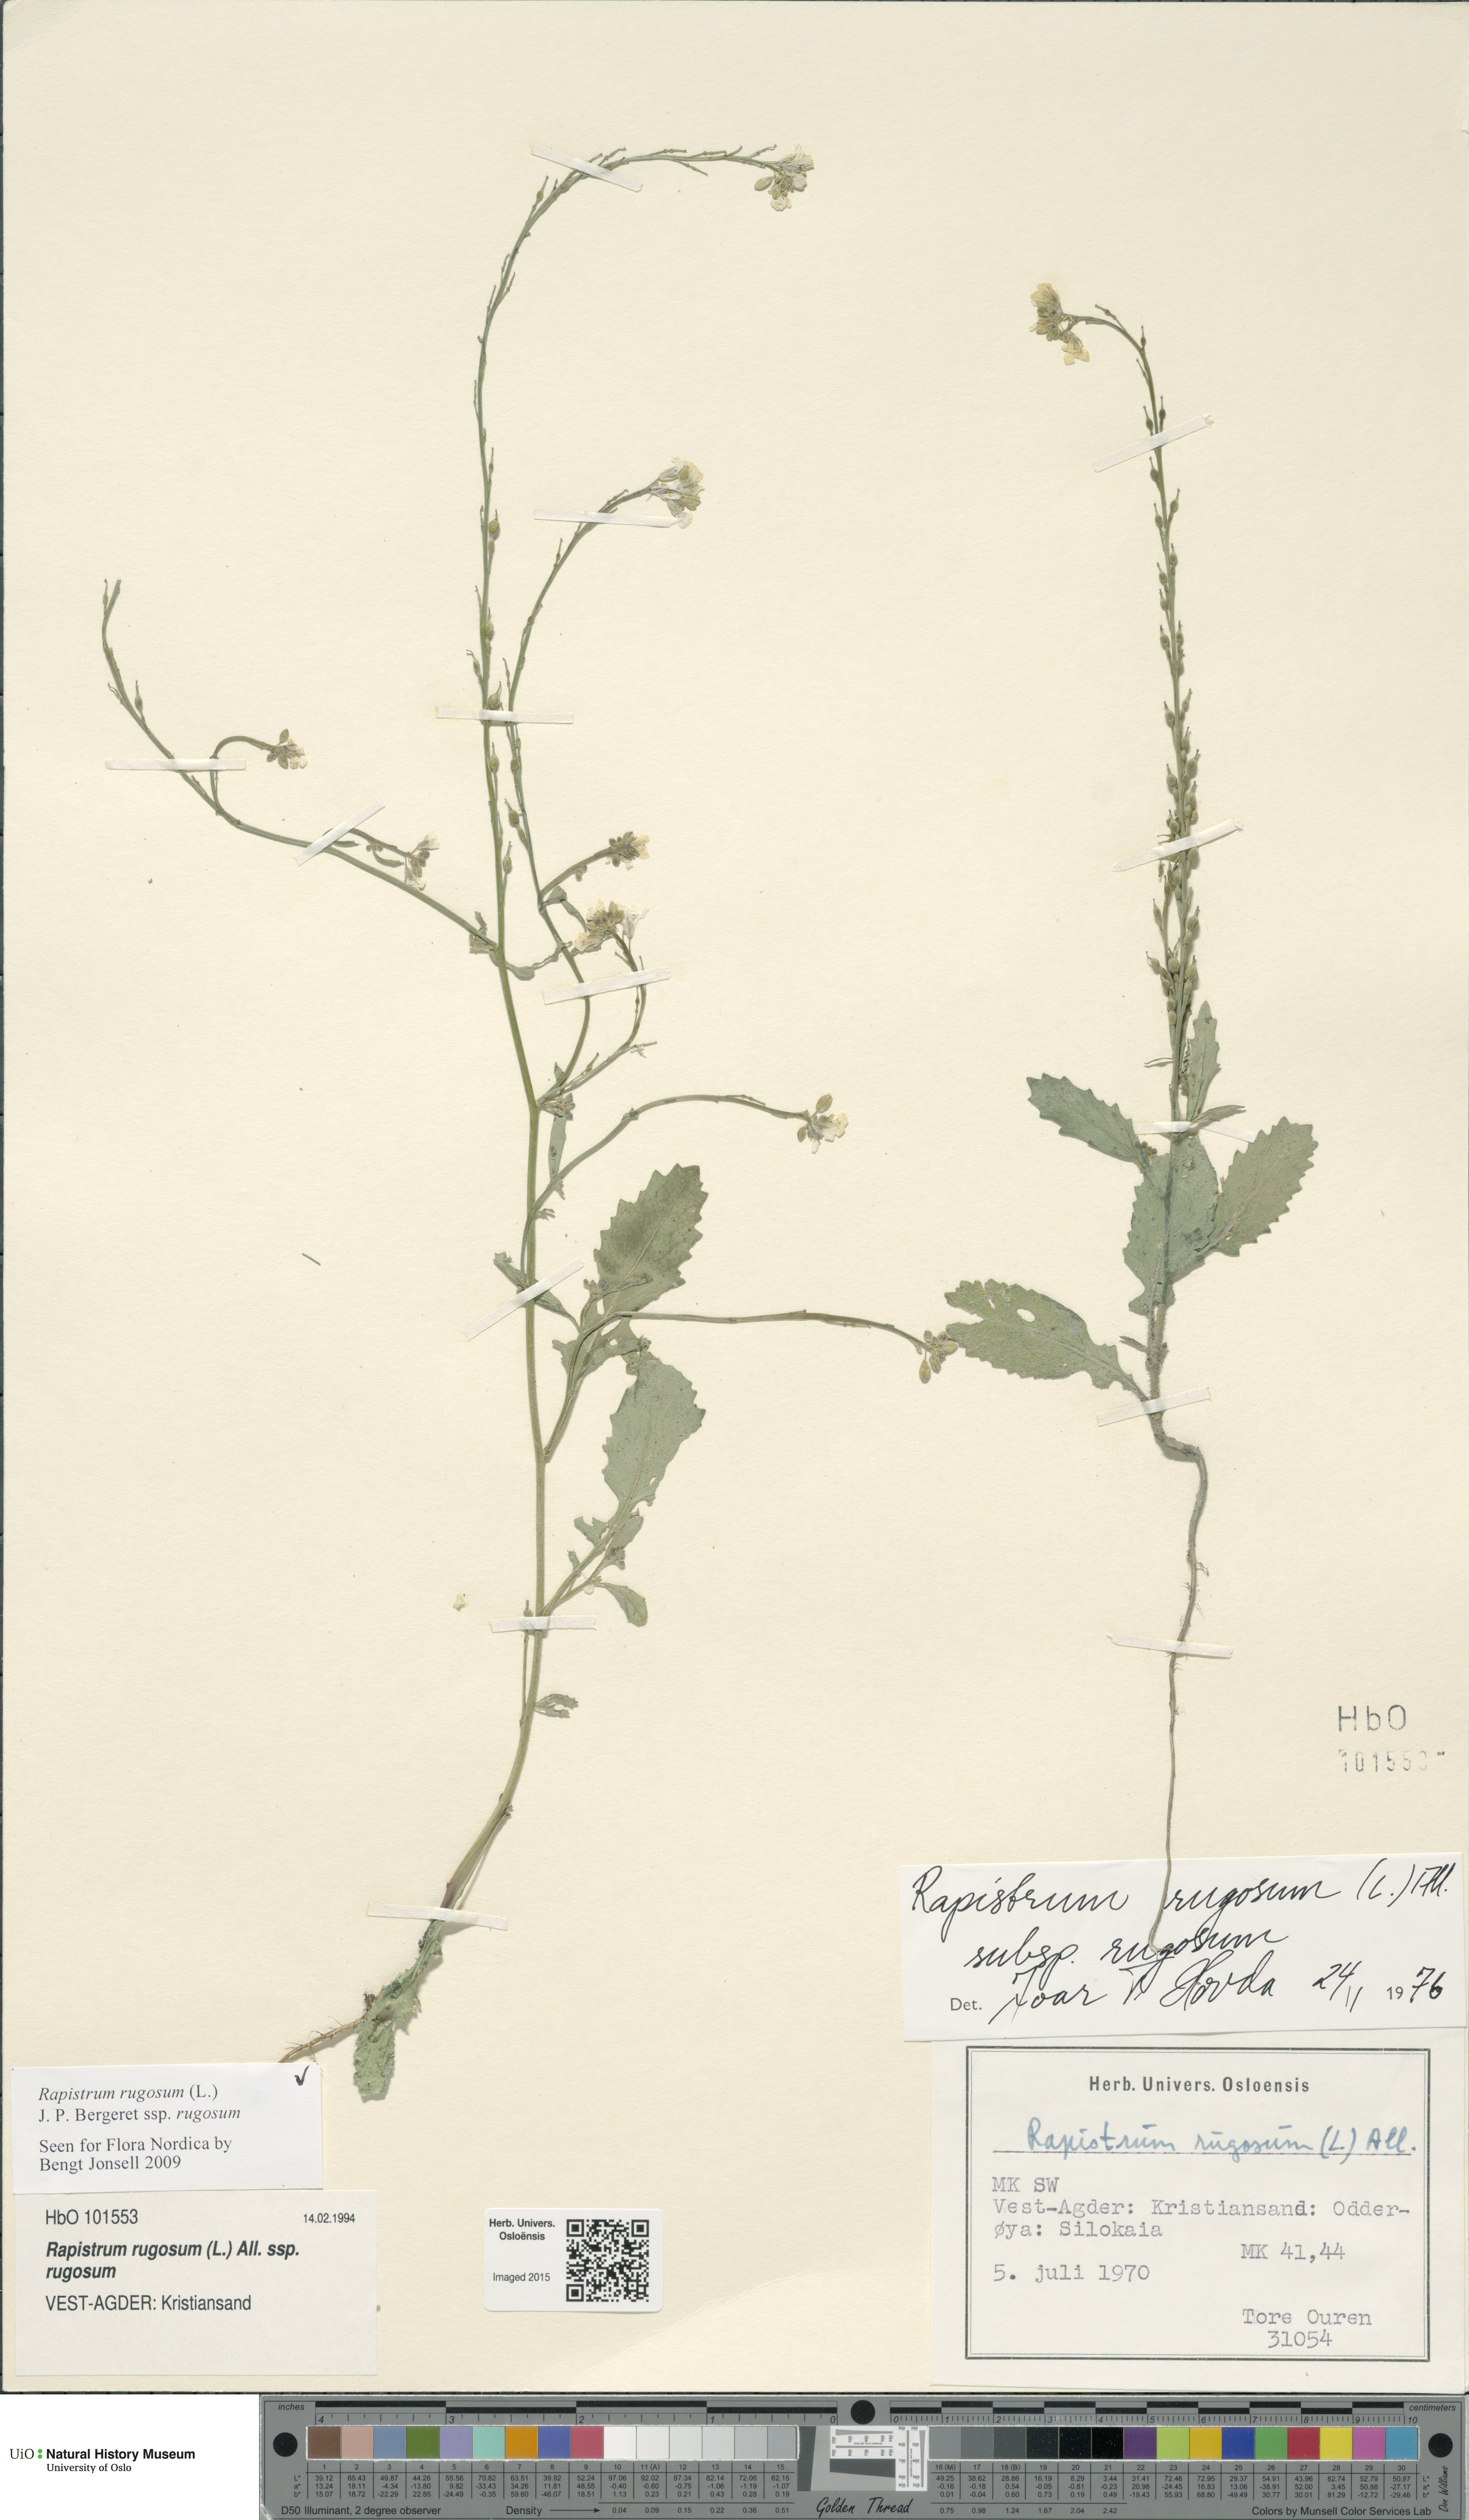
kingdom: Plantae
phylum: Tracheophyta
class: Magnoliopsida
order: Brassicales
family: Brassicaceae
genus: Rapistrum
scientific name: Rapistrum rugosum
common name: Annual bastardcabbage
